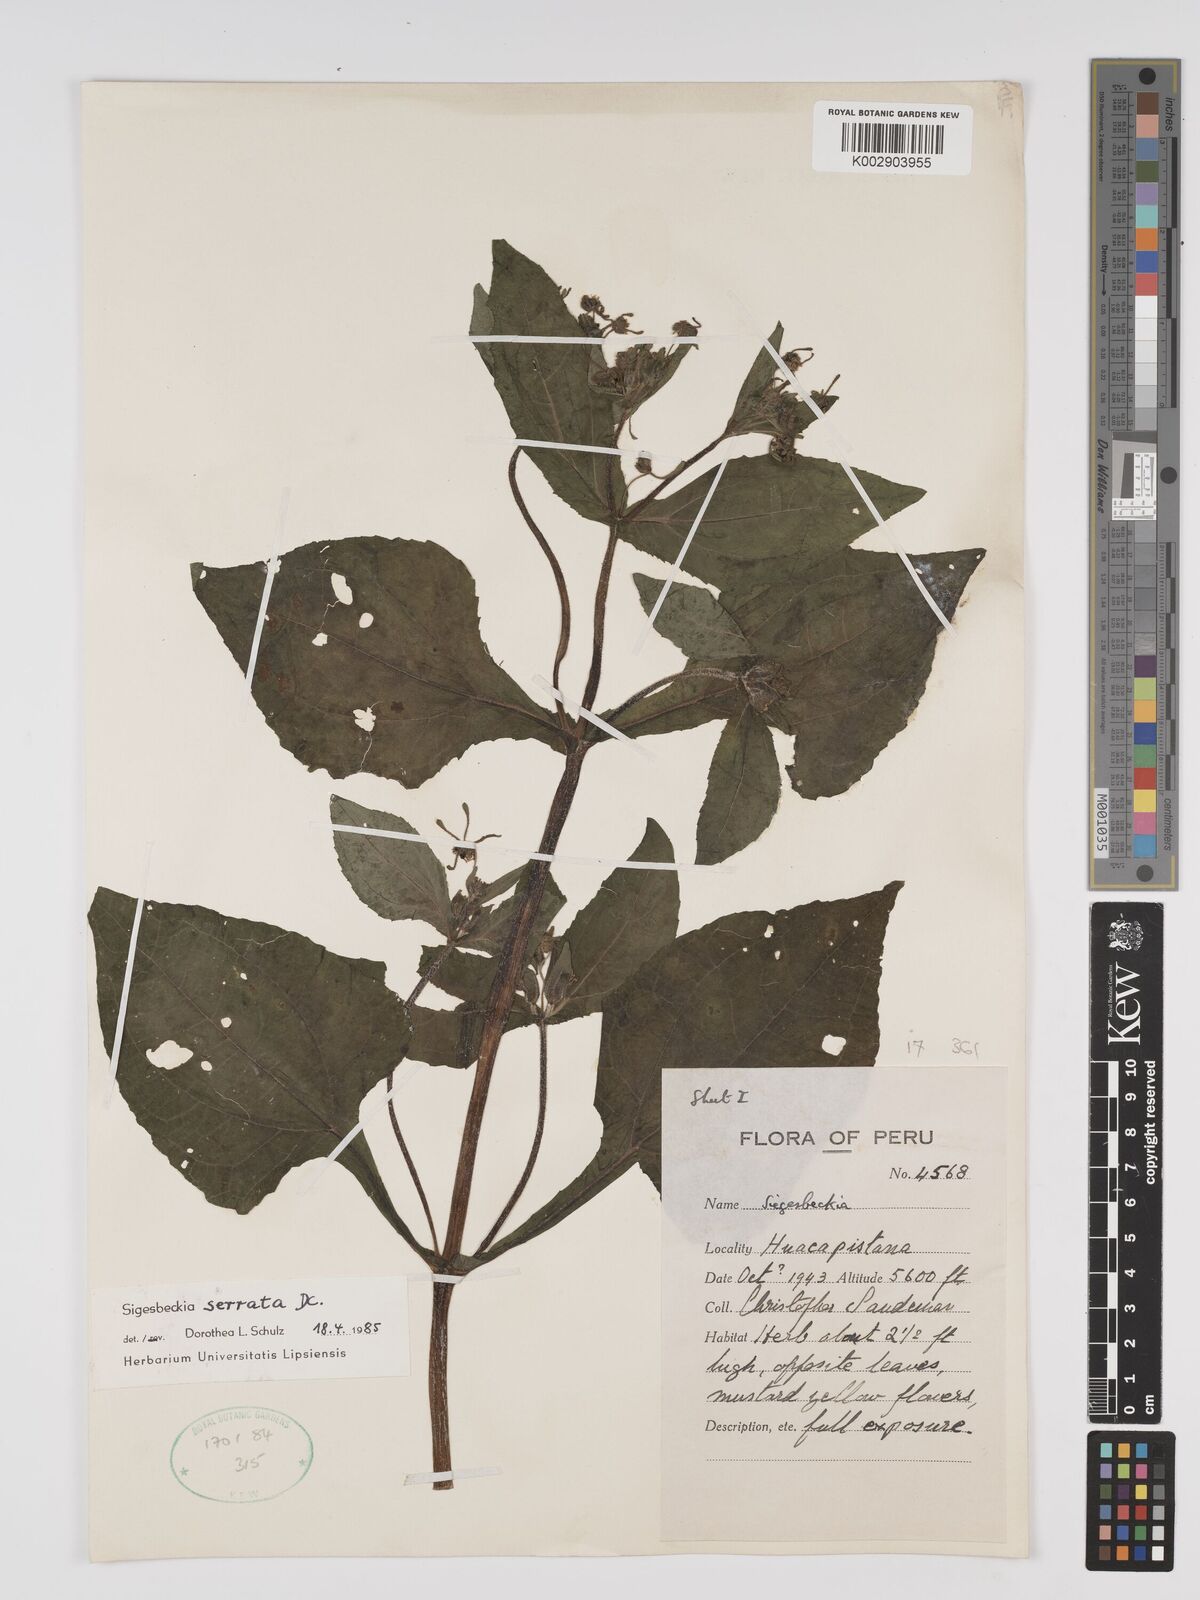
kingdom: Plantae
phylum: Tracheophyta
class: Magnoliopsida
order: Asterales
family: Asteraceae
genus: Sigesbeckia
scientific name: Sigesbeckia jorullensis
